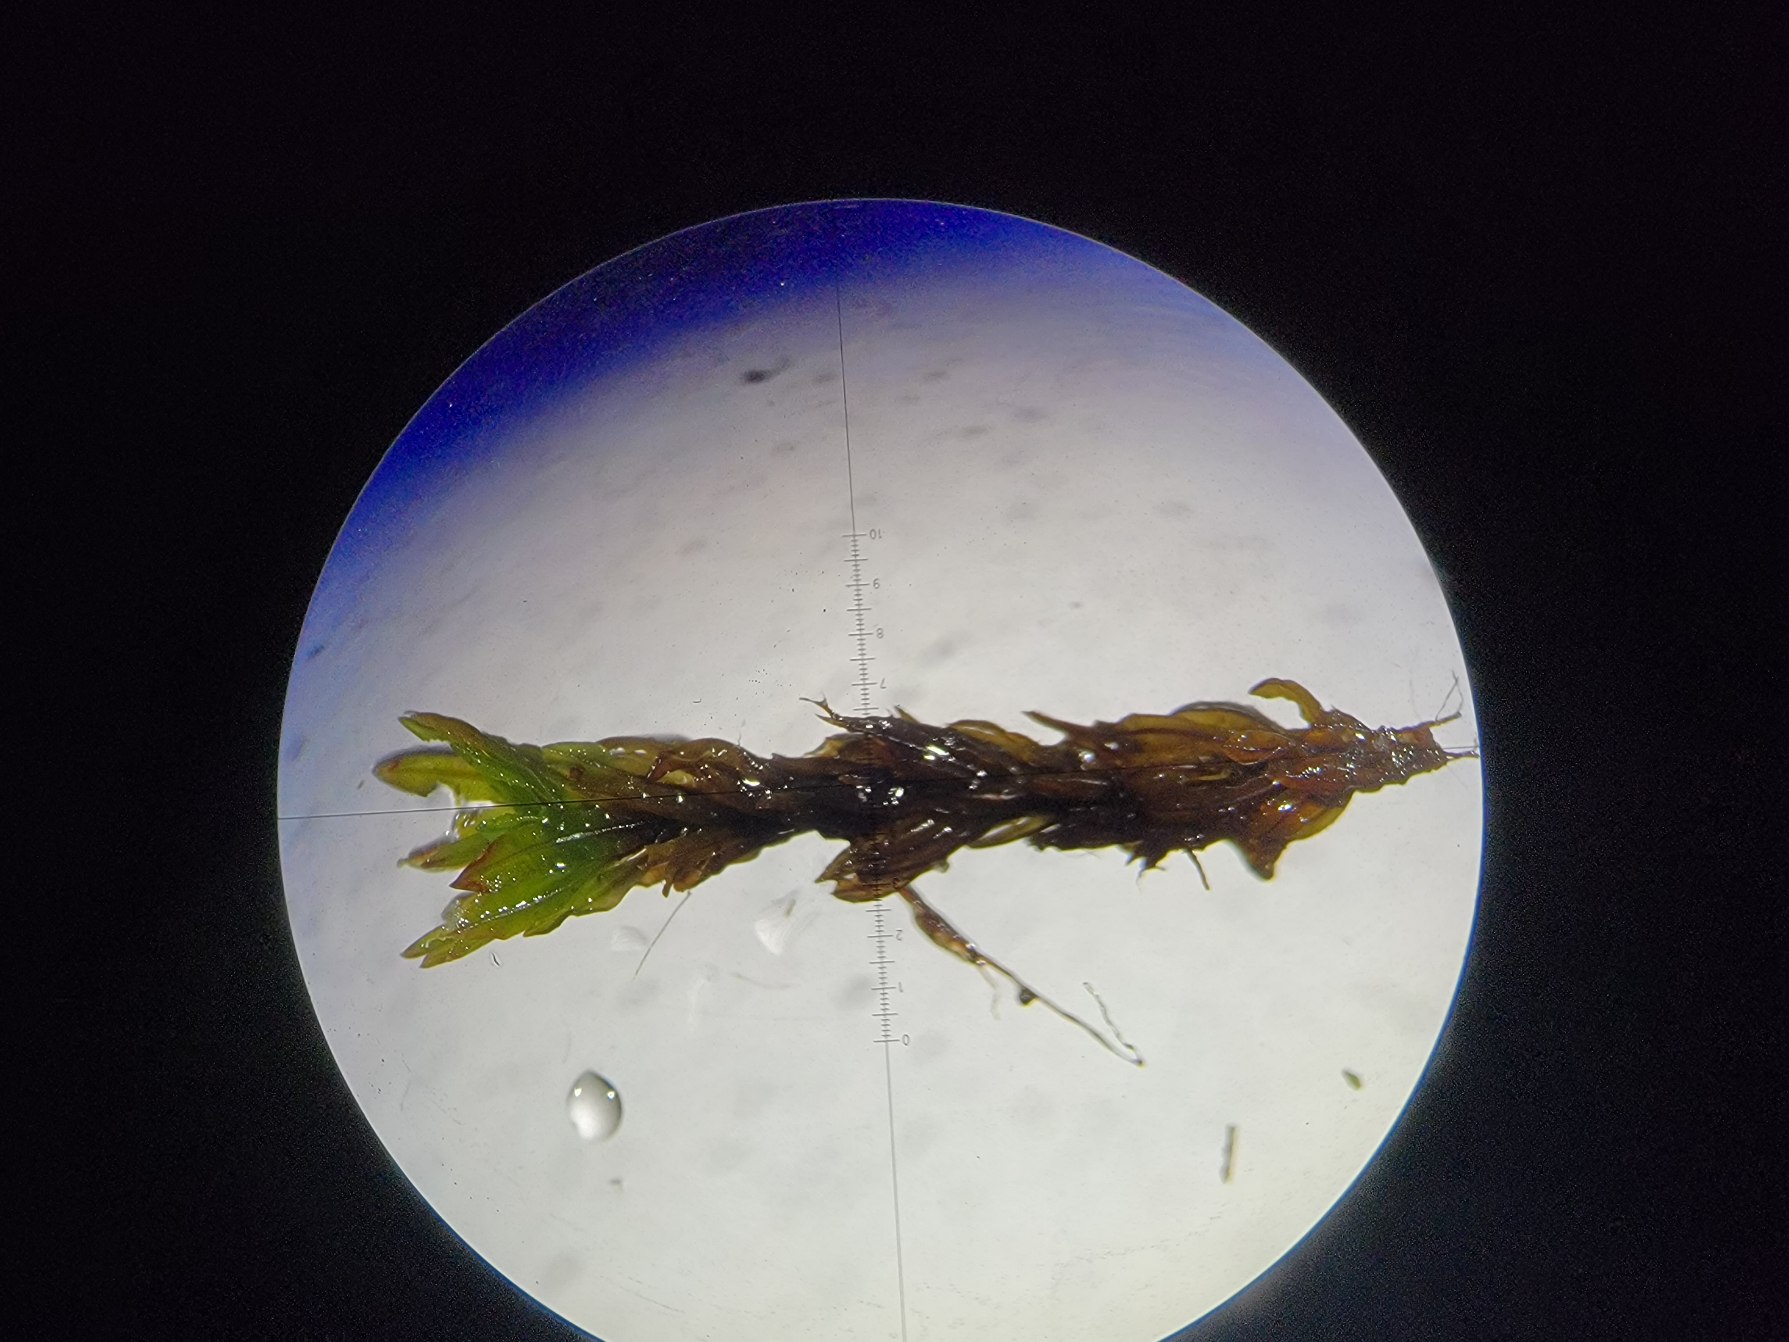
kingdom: Plantae
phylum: Bryophyta
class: Bryopsida
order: Encalyptales
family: Encalyptaceae
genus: Encalypta
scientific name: Encalypta vulgaris
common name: Almindelig klokkehætte
